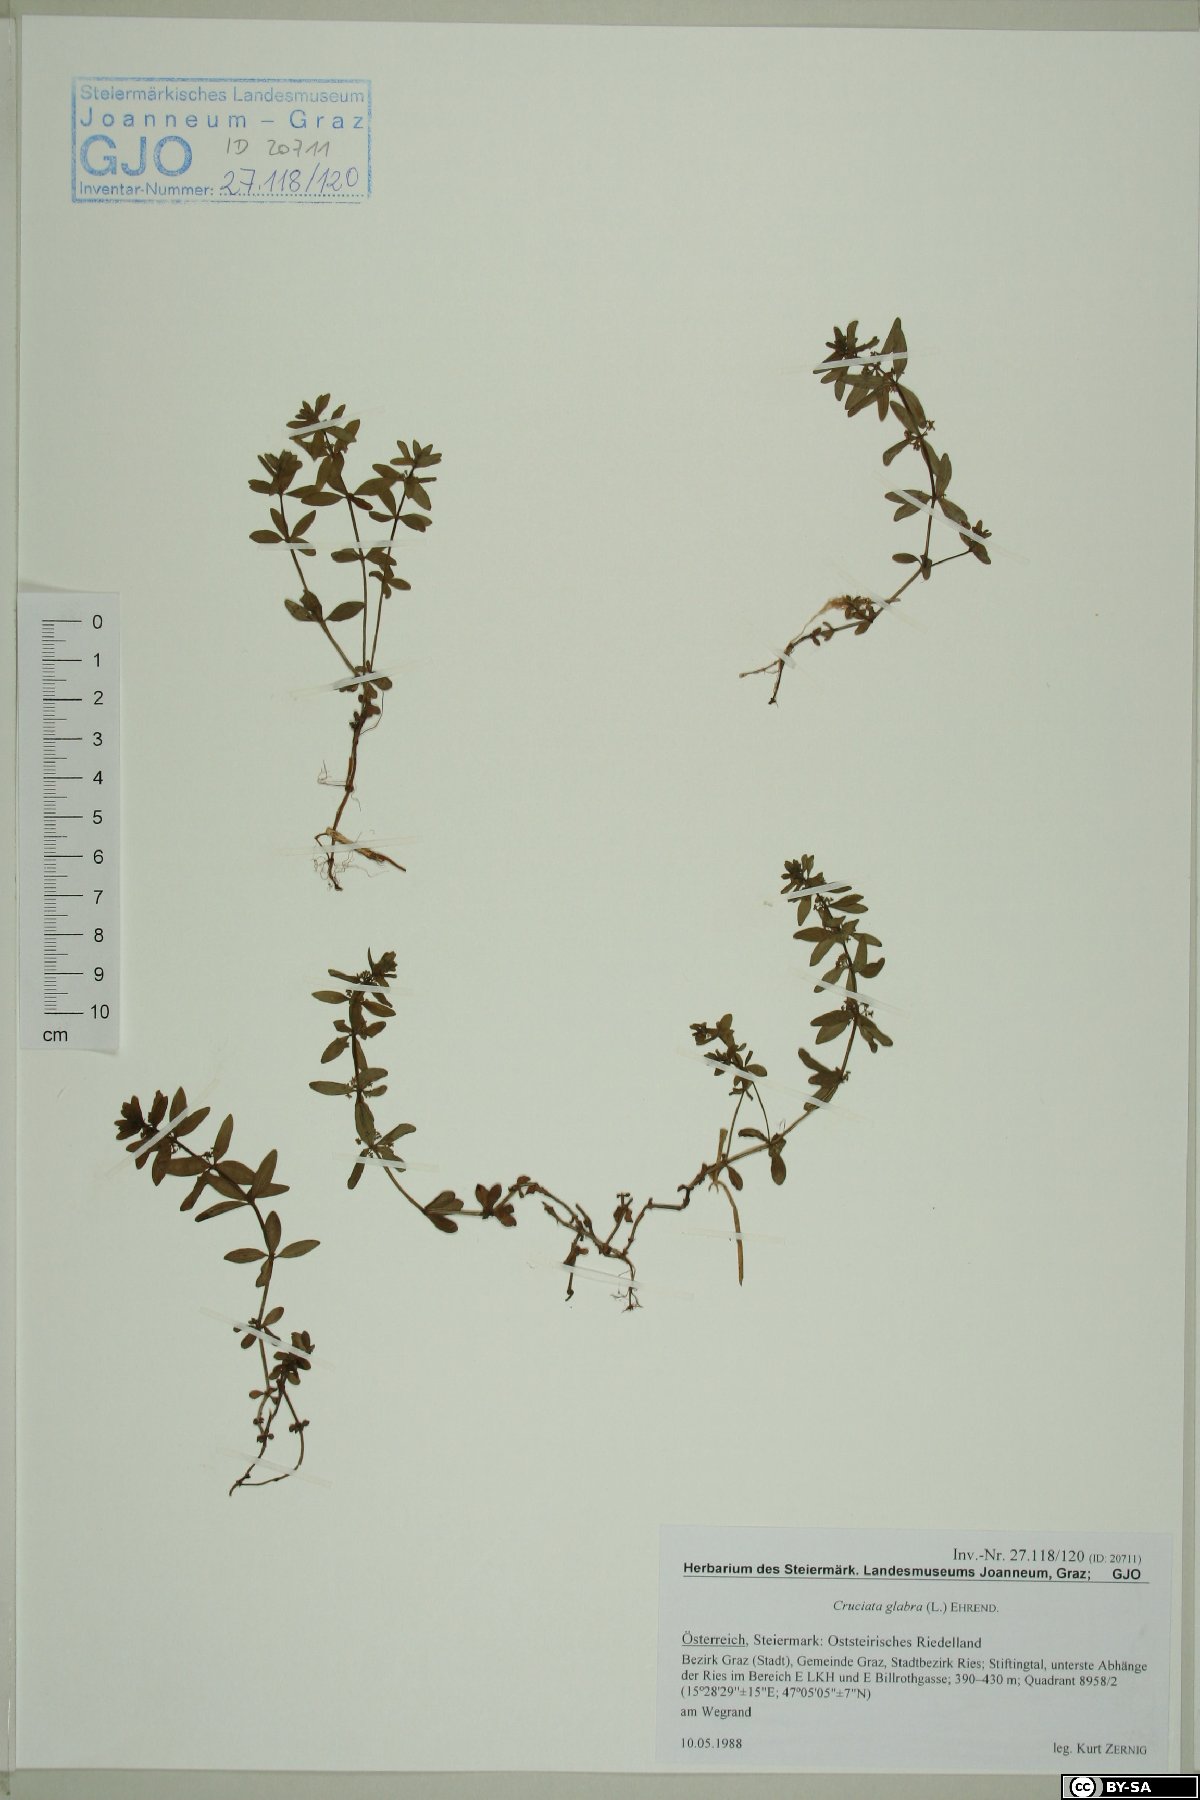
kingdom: Plantae
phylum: Tracheophyta
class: Magnoliopsida
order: Gentianales
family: Rubiaceae
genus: Cruciata
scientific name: Cruciata glabra
